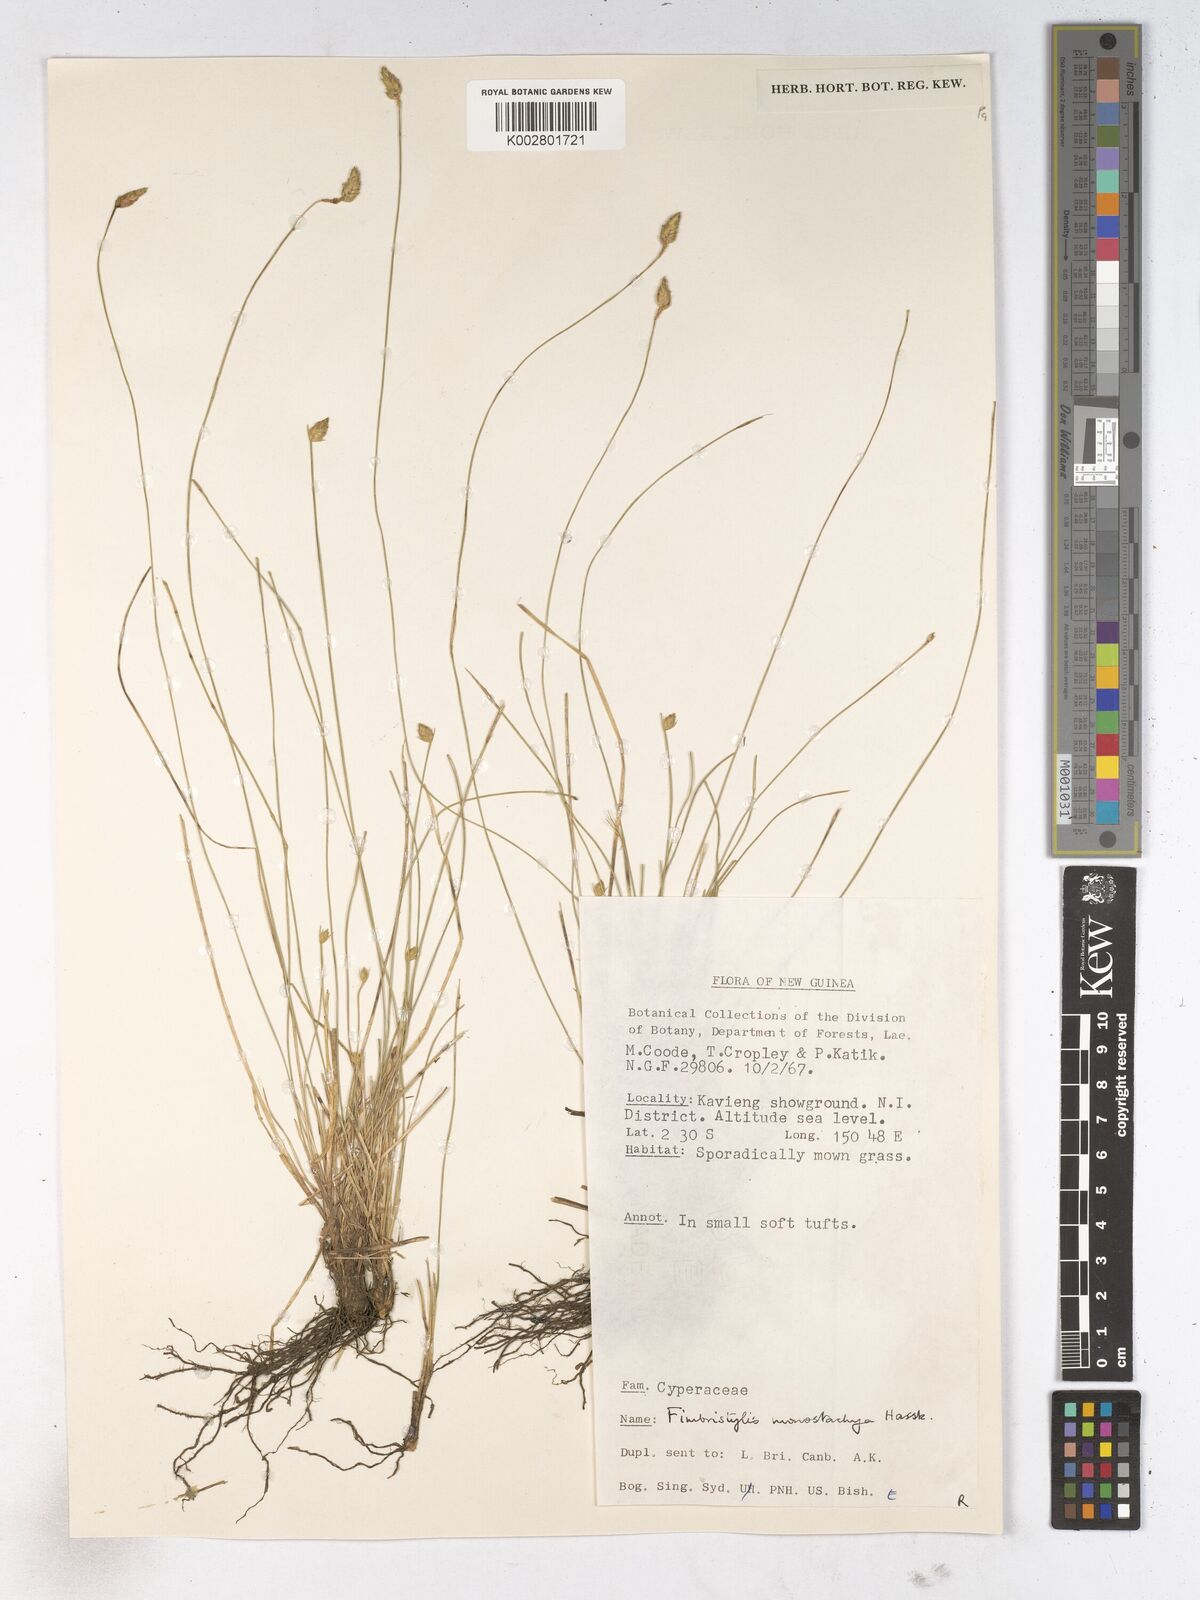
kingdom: Plantae
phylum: Tracheophyta
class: Liliopsida
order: Poales
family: Cyperaceae
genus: Abildgaardia
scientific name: Abildgaardia ovata
